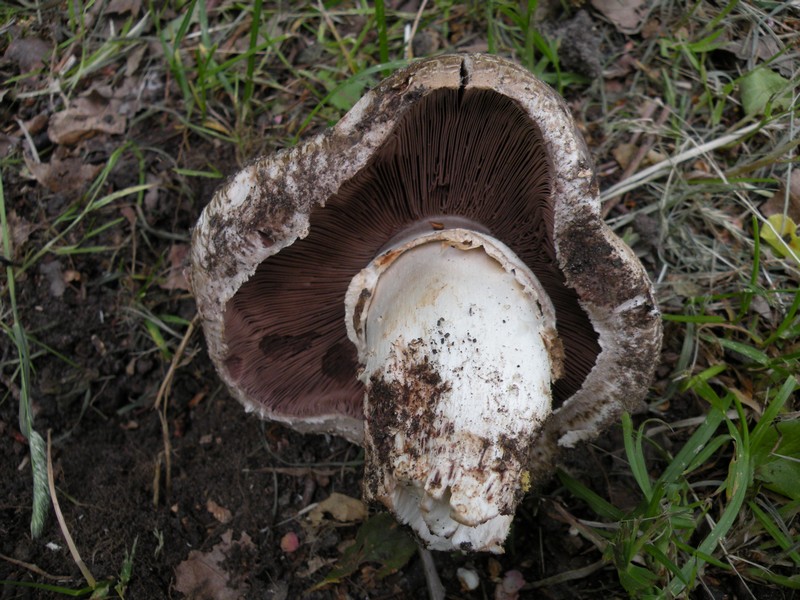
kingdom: Fungi
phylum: Basidiomycota
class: Agaricomycetes
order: Agaricales
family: Agaricaceae
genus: Agaricus
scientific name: Agaricus subperonatus
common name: knippe-champignon
